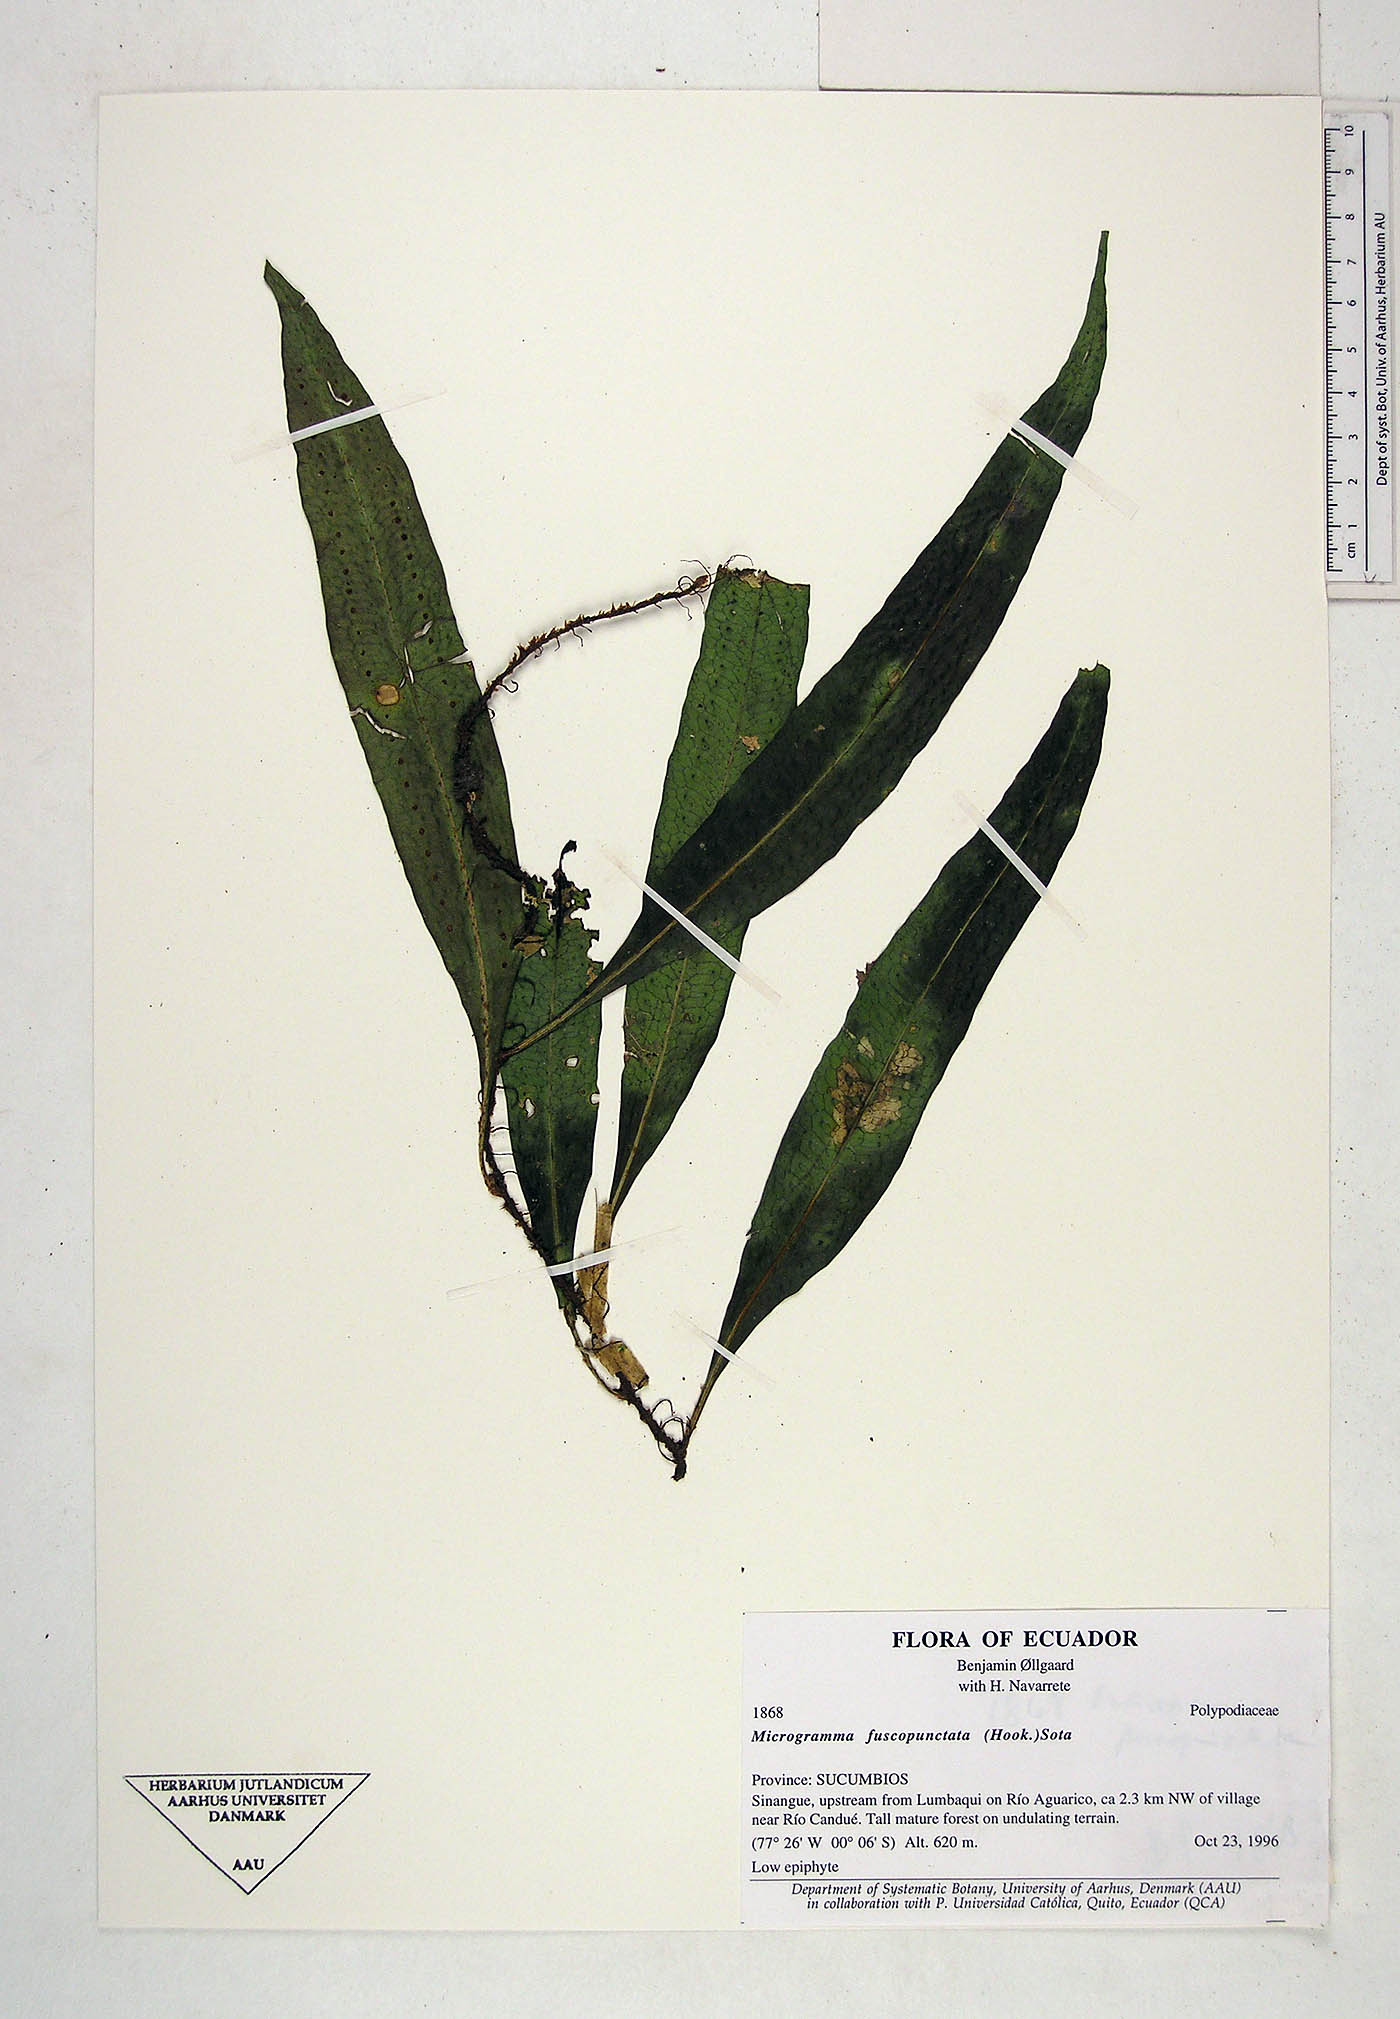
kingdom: Plantae
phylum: Tracheophyta
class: Polypodiopsida
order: Polypodiales
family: Polypodiaceae
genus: Microgramma
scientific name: Microgramma dictyophylla
